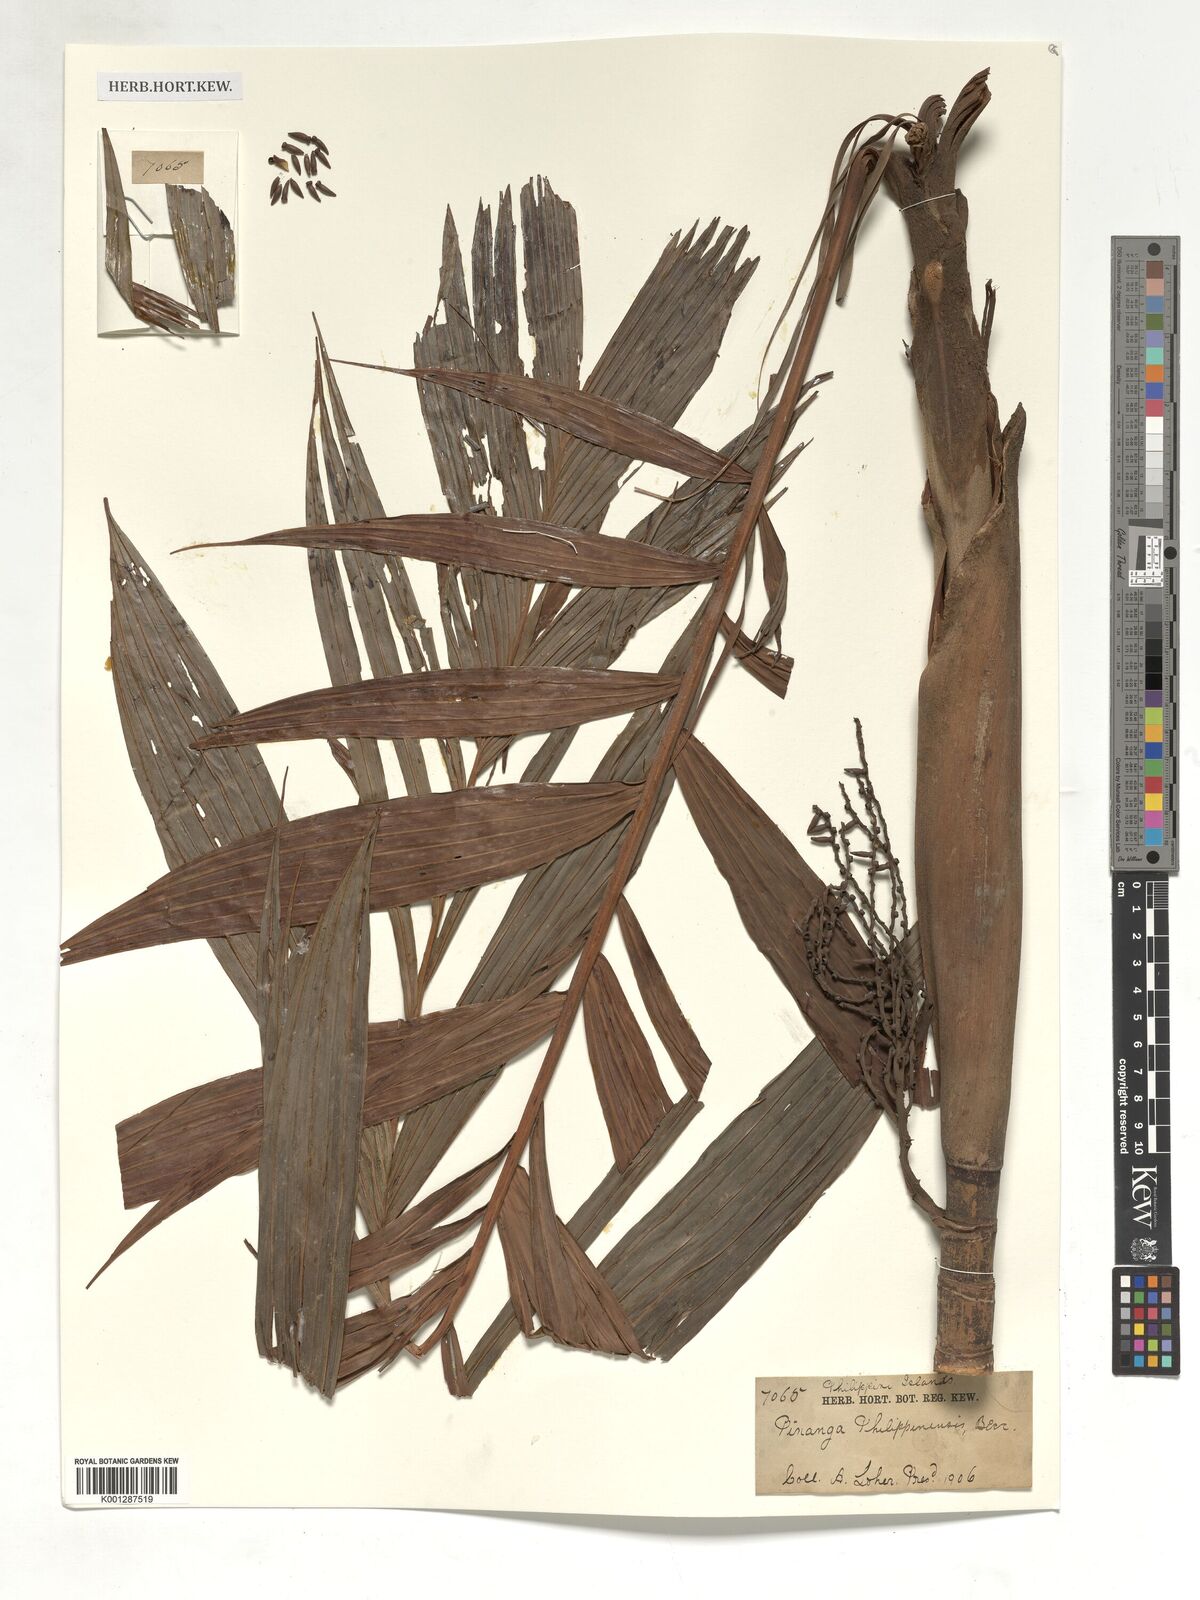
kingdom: Plantae
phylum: Tracheophyta
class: Liliopsida
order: Arecales
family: Arecaceae
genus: Pinanga
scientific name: Pinanga philippinensis
